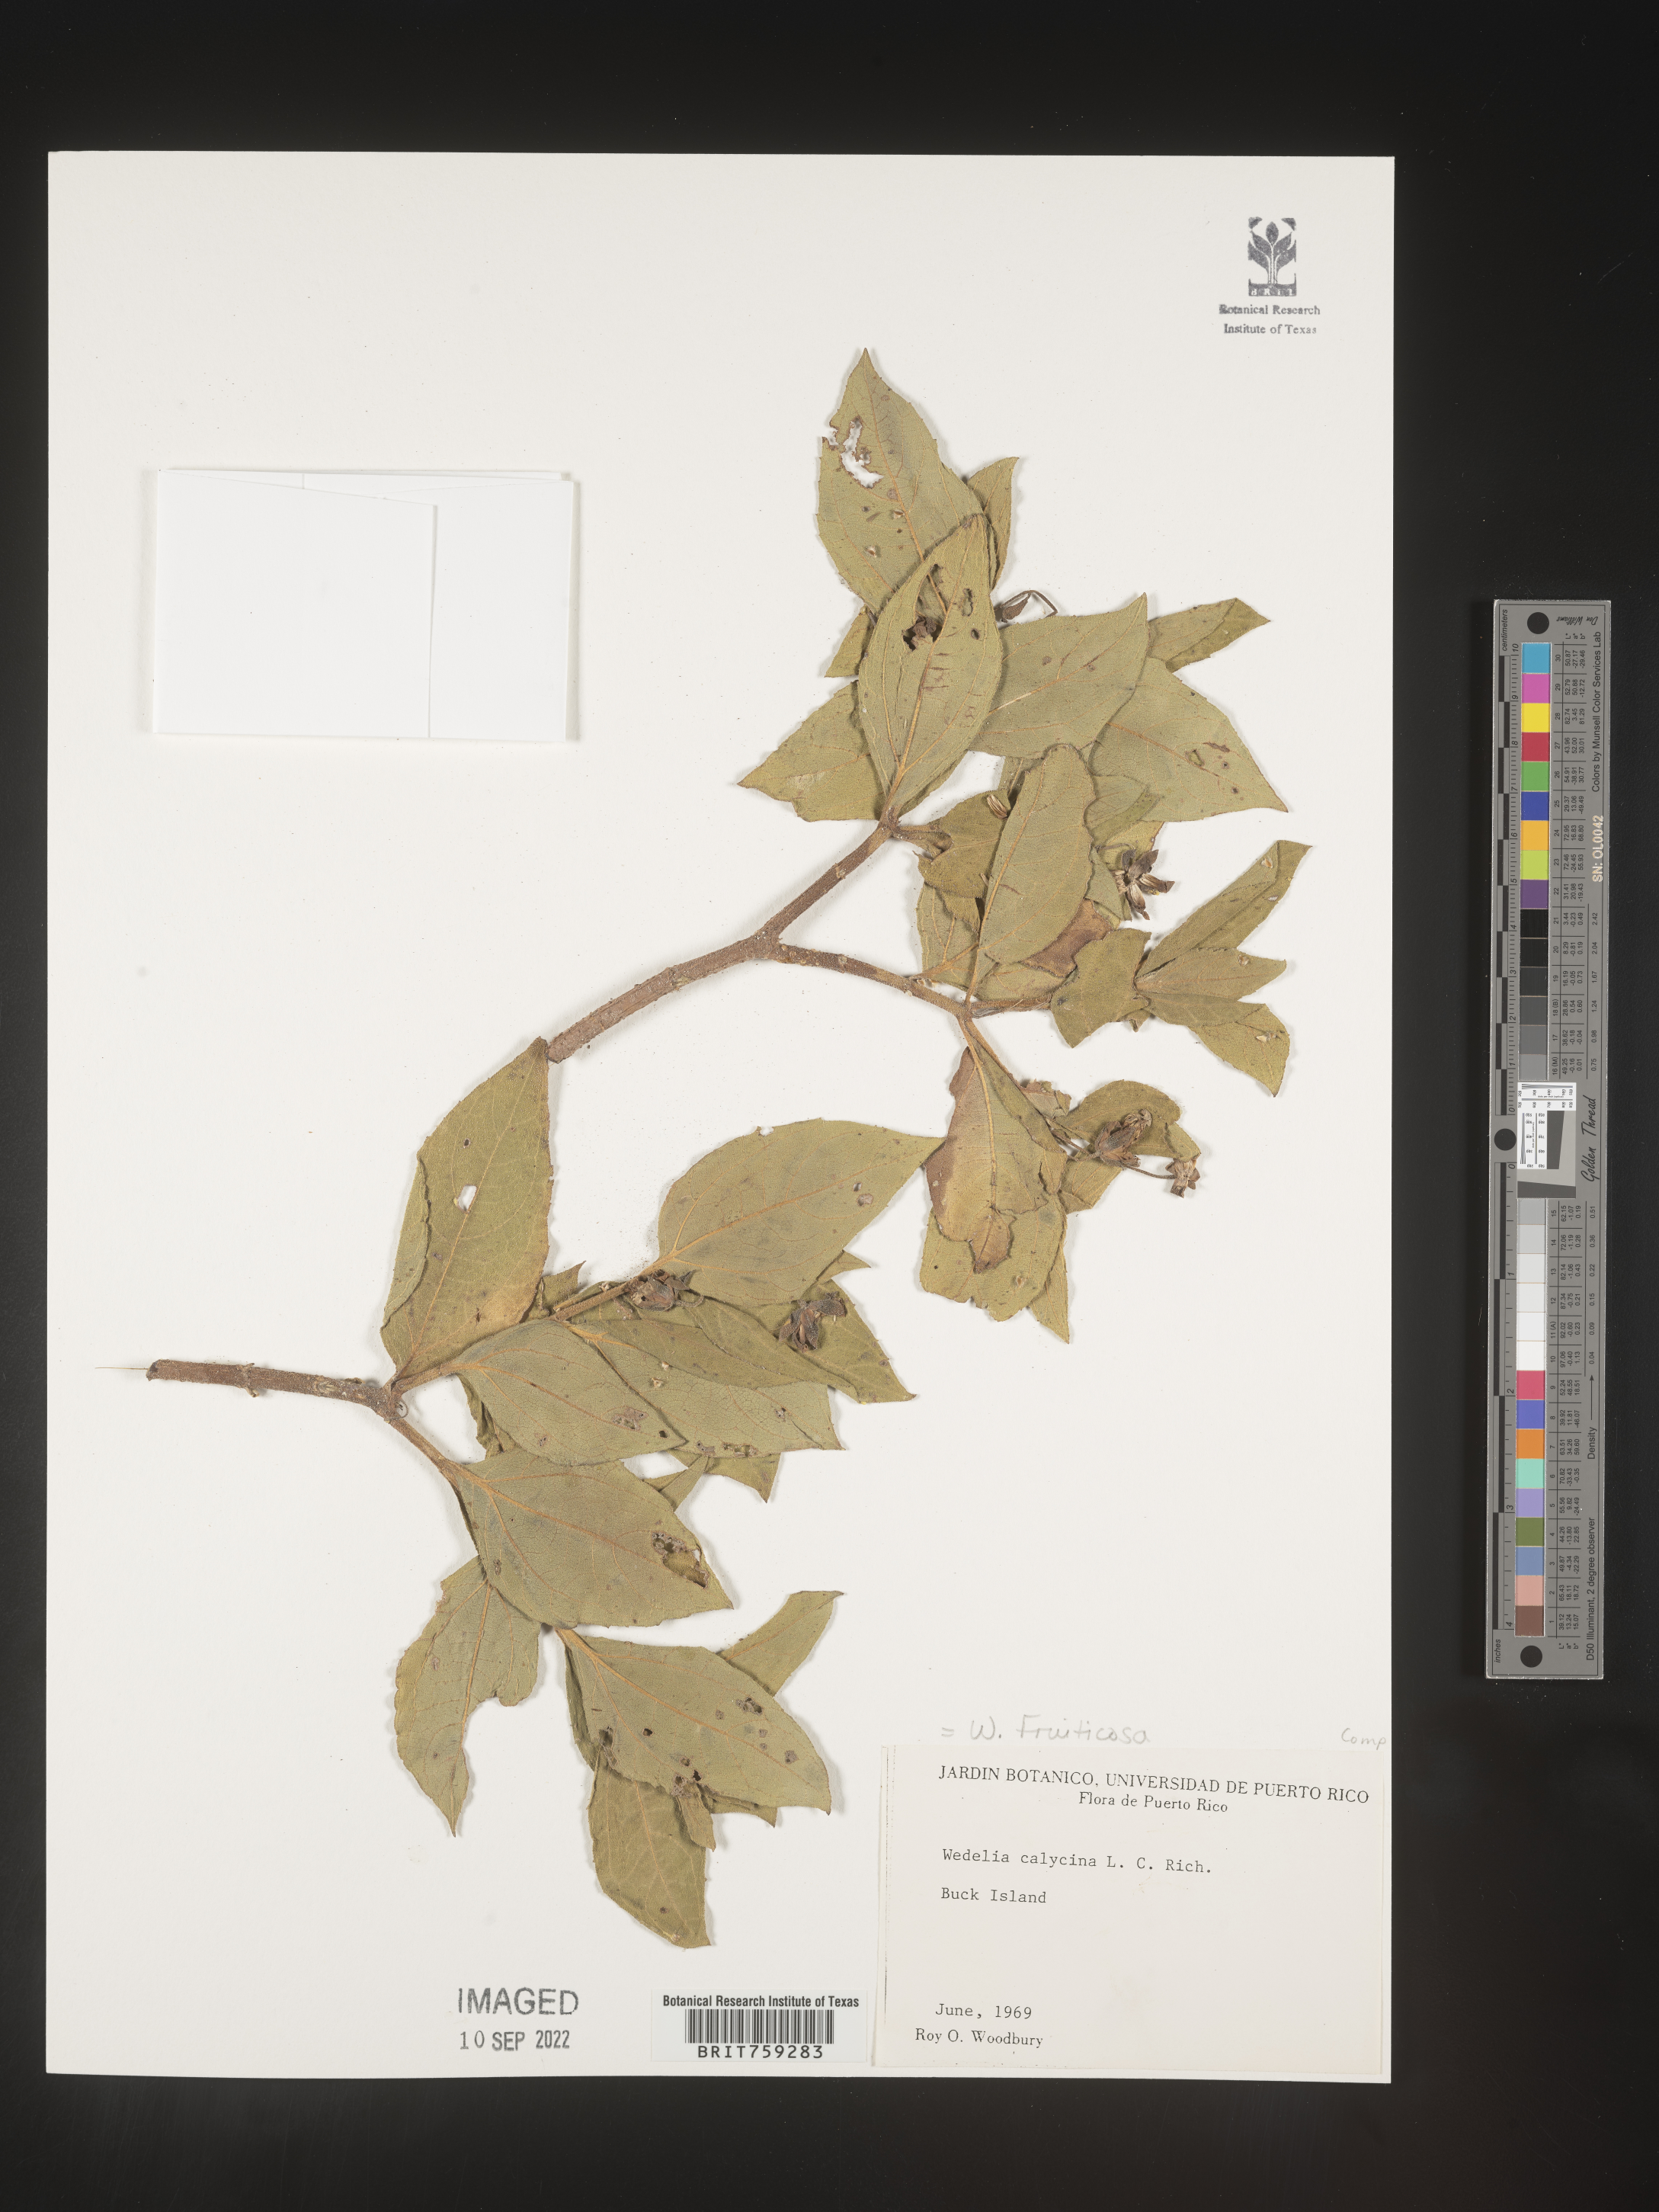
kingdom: Plantae
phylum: Tracheophyta
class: Magnoliopsida
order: Asterales
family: Asteraceae
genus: Wedelia
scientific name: Wedelia
